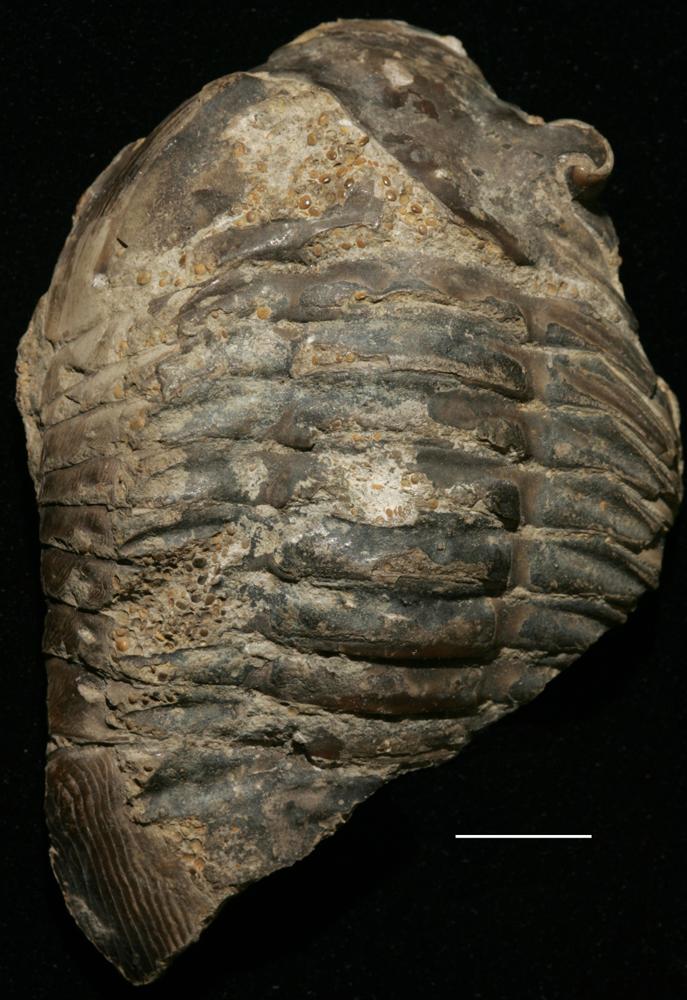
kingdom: Animalia
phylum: Arthropoda
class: Trilobita
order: Asaphida
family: Asaphidae
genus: Asaphus
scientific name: Asaphus
